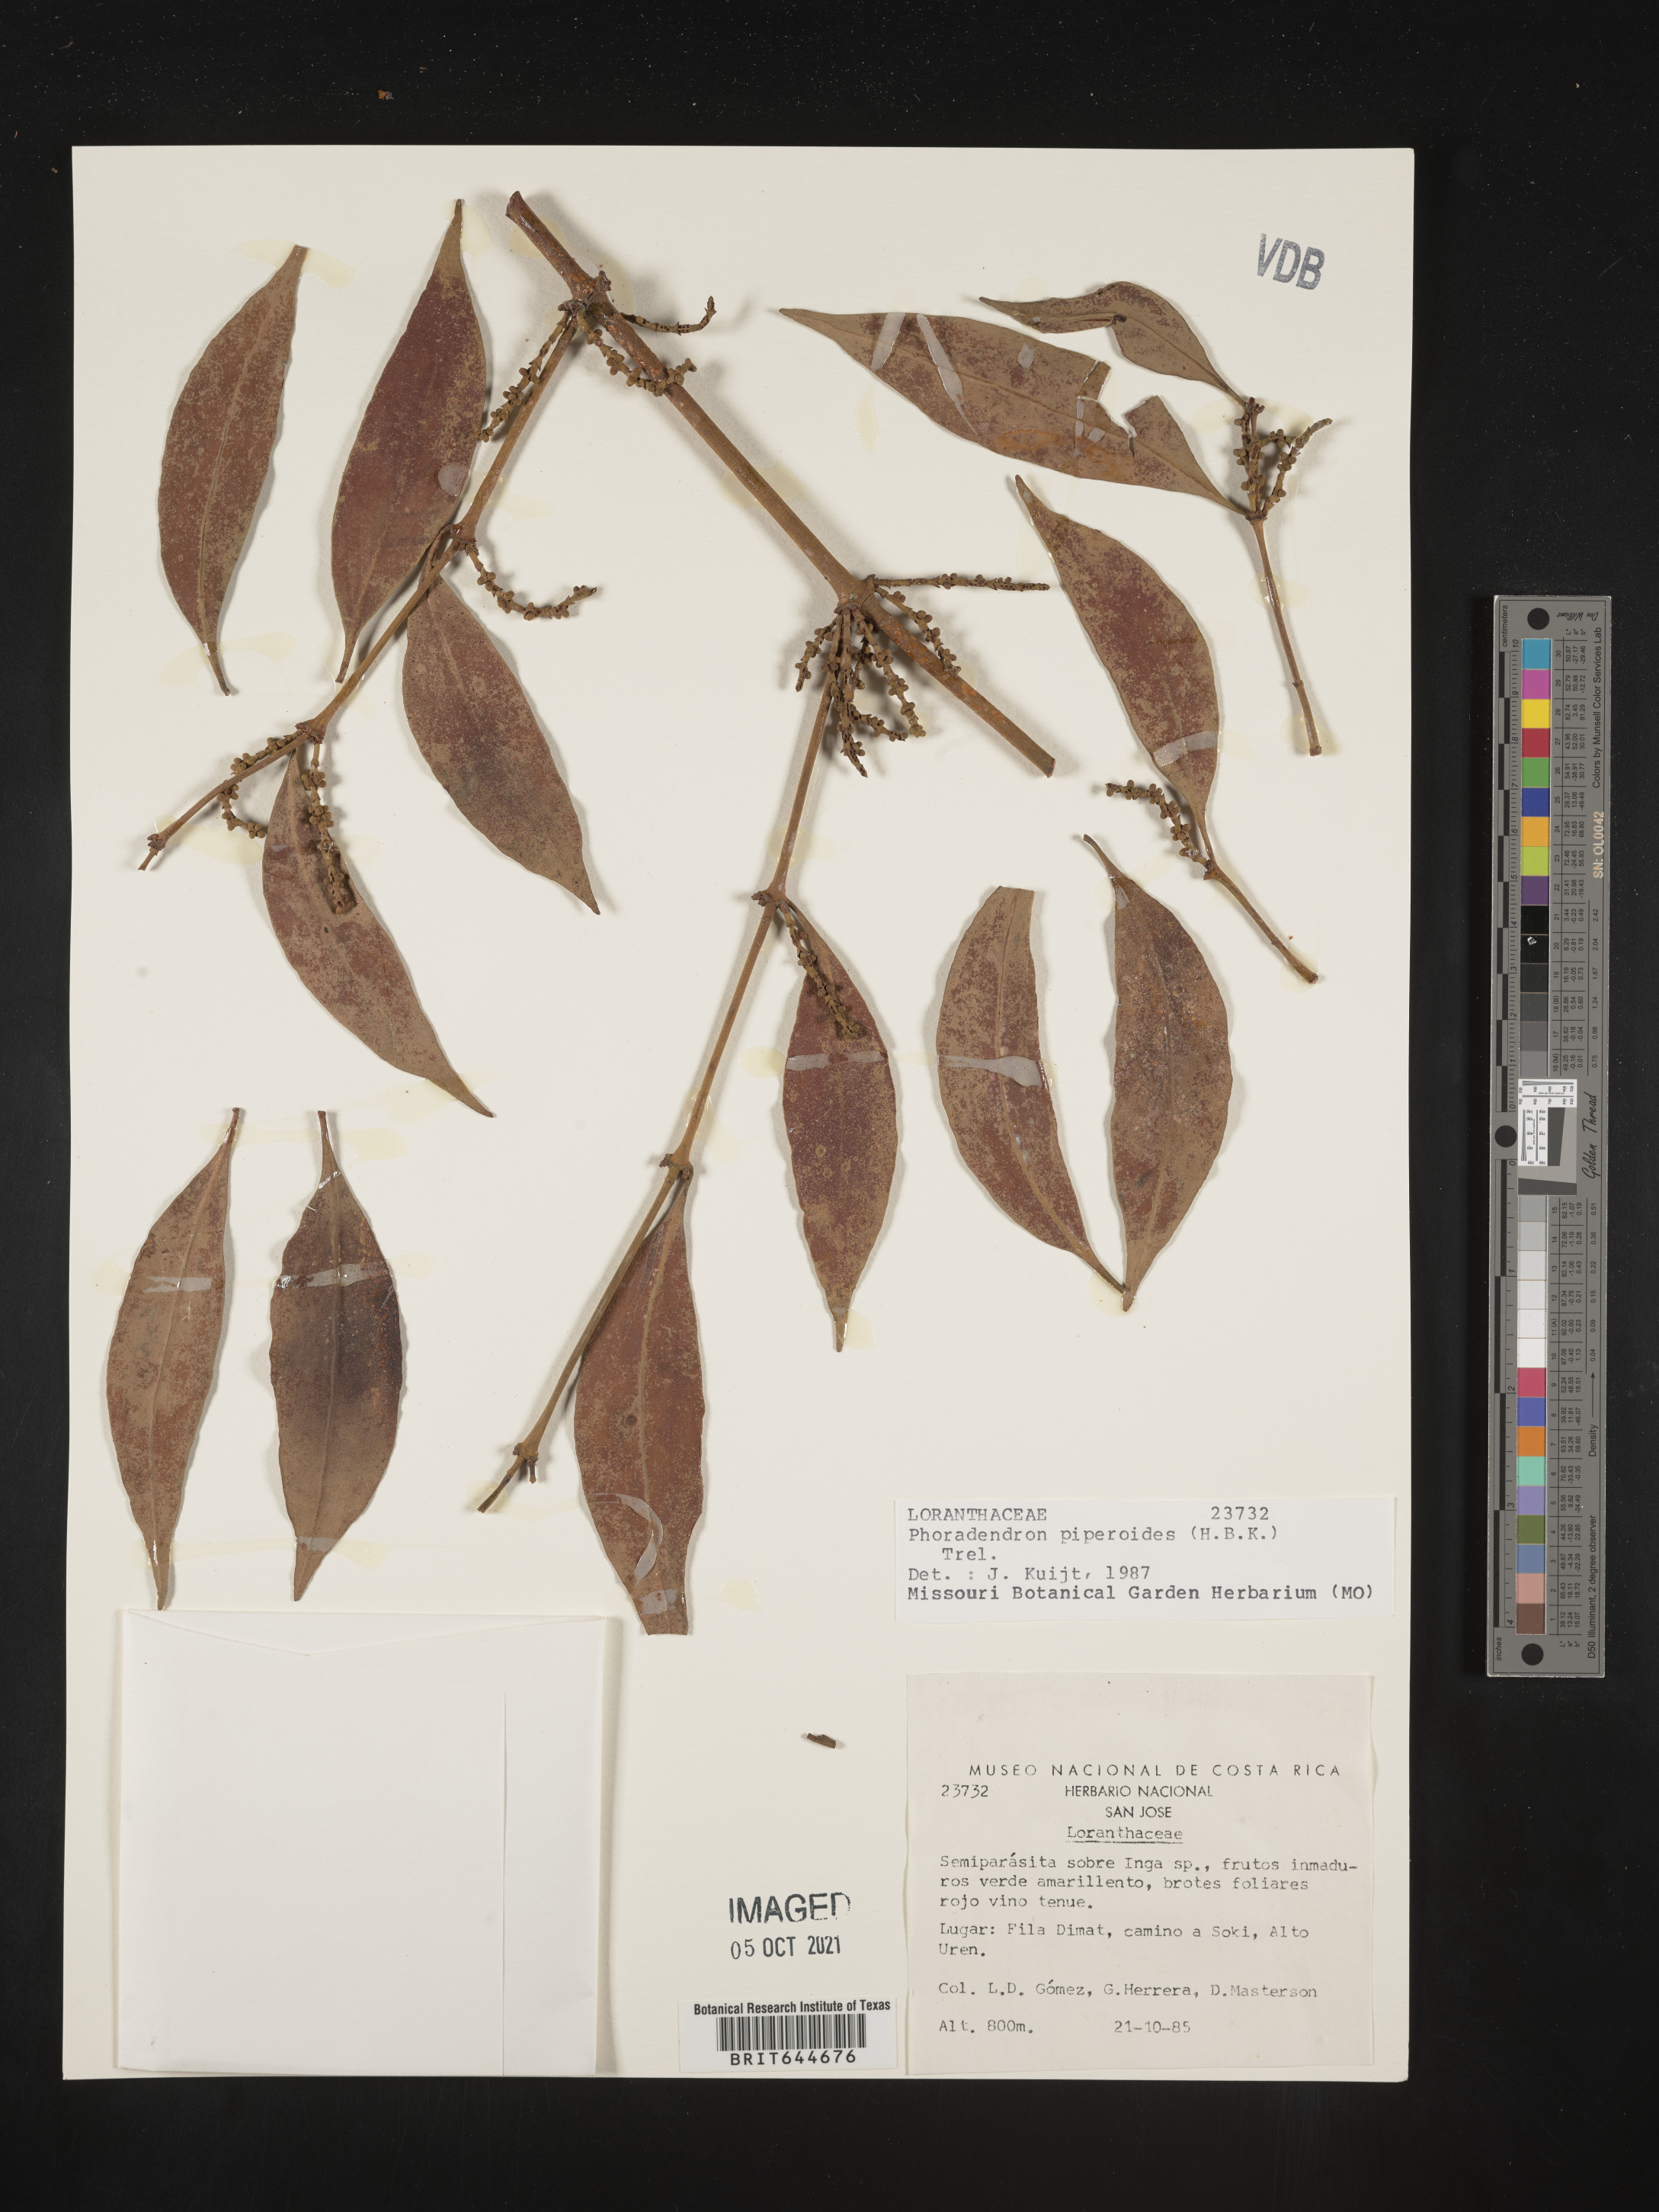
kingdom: Plantae
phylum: Tracheophyta
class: Magnoliopsida
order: Santalales
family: Viscaceae
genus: Phoradendron
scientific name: Phoradendron
